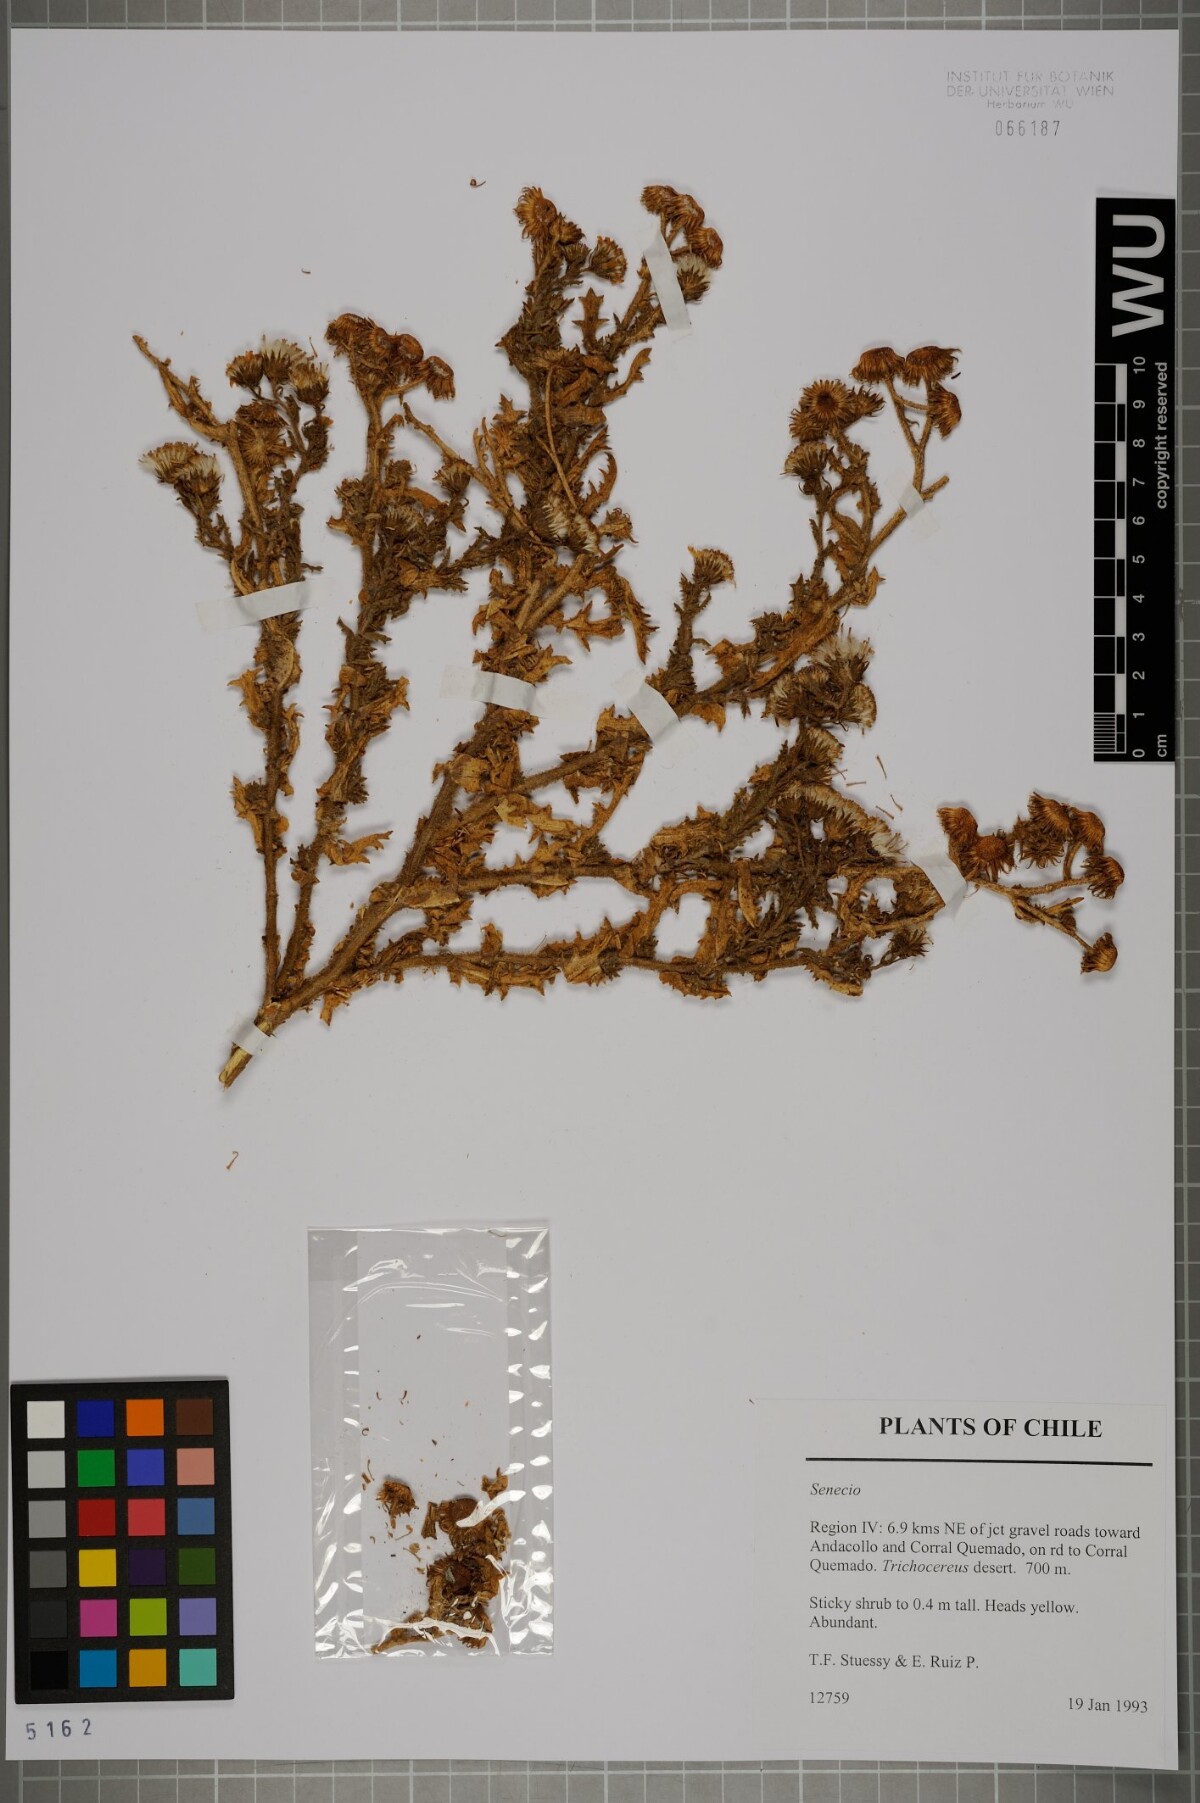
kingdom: Plantae
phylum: Tracheophyta
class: Magnoliopsida
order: Asterales
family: Asteraceae
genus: Senecio
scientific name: Senecio murinus
